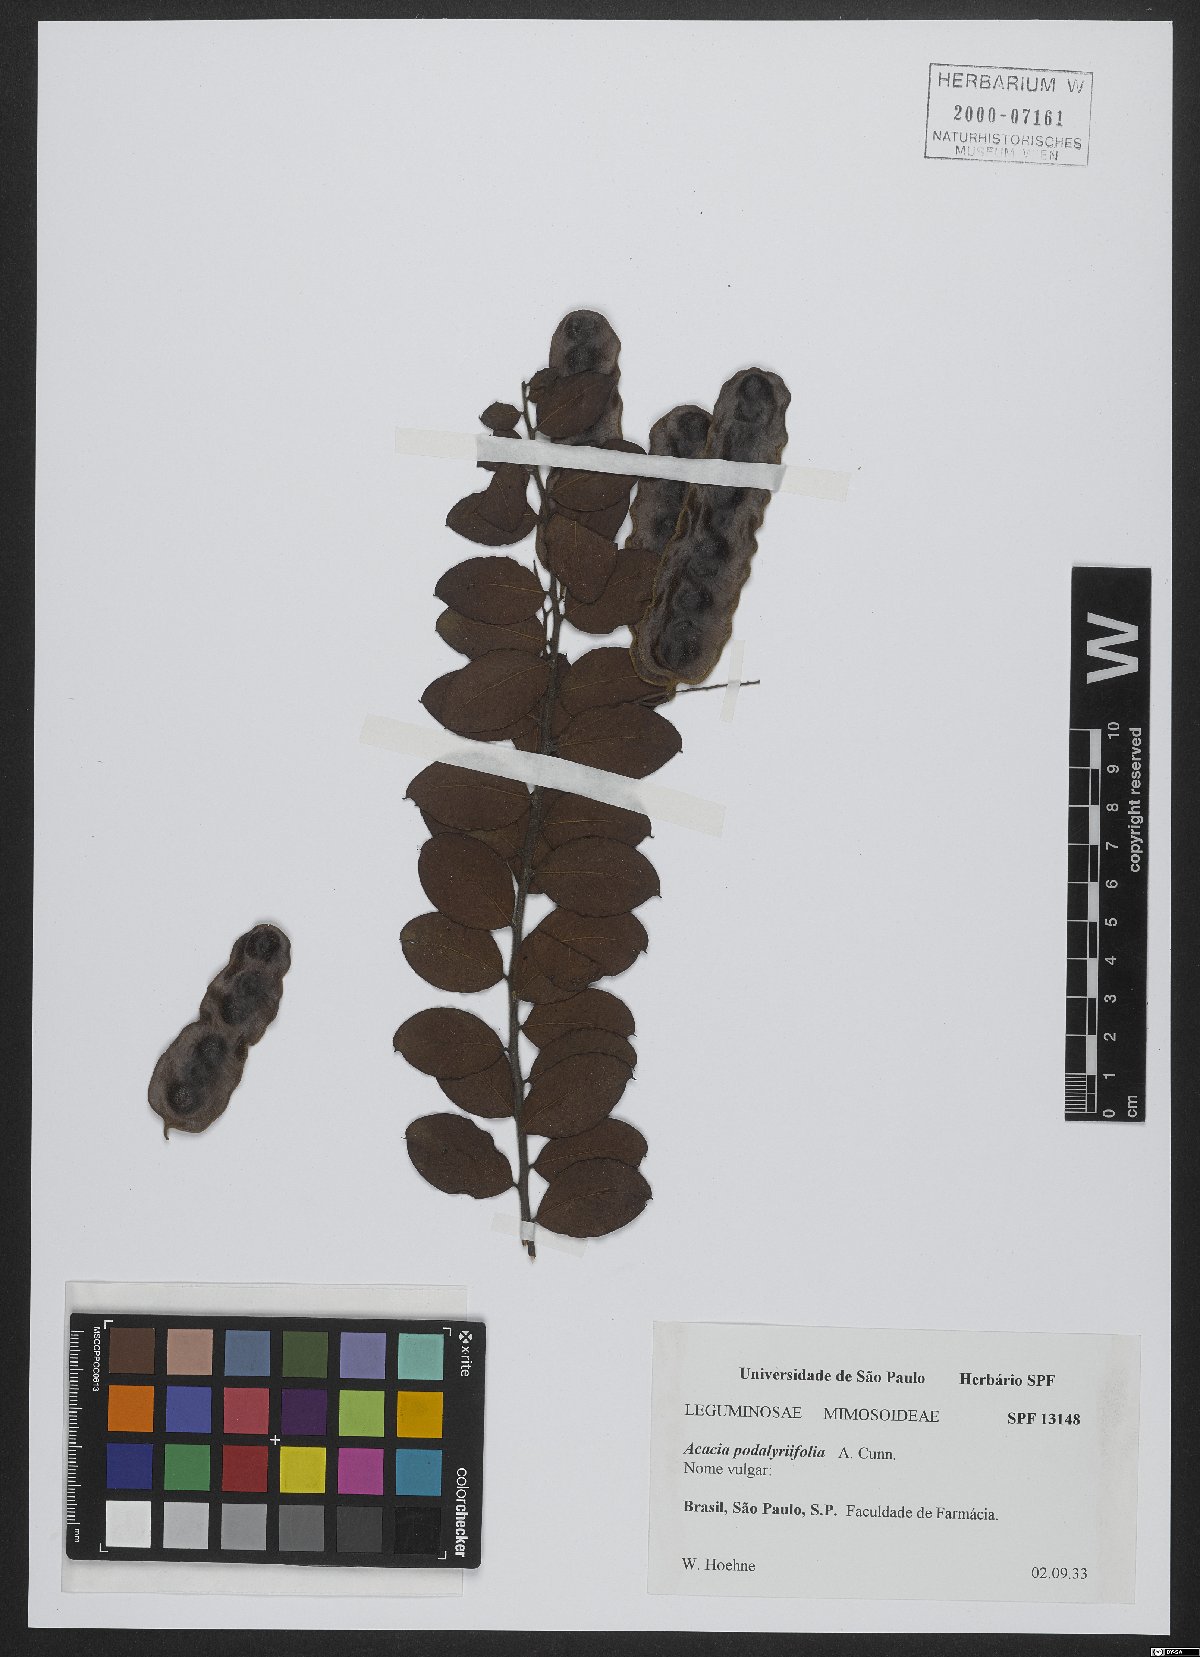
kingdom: Plantae
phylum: Tracheophyta
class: Magnoliopsida
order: Fabales
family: Fabaceae
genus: Acacia
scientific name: Acacia podalyriifolia
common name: Pearl wattle
